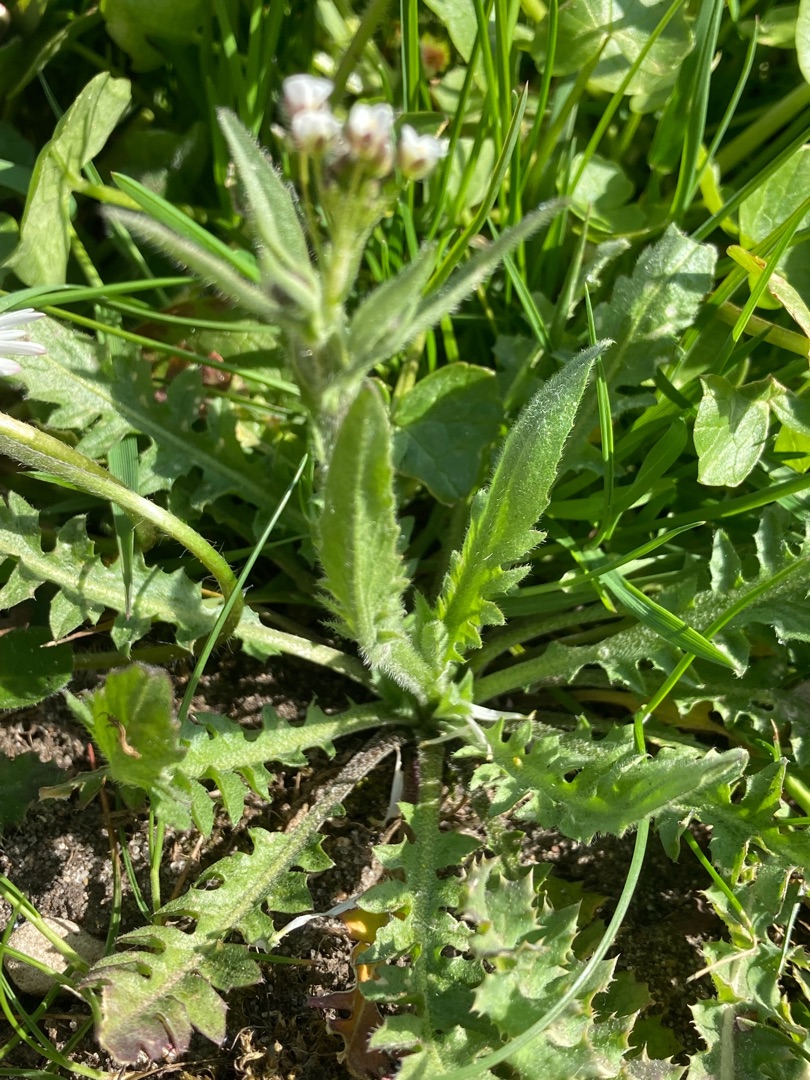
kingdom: Plantae
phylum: Tracheophyta
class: Magnoliopsida
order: Brassicales
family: Brassicaceae
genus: Capsella
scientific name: Capsella bursa-pastoris
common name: Hyrdetaske
